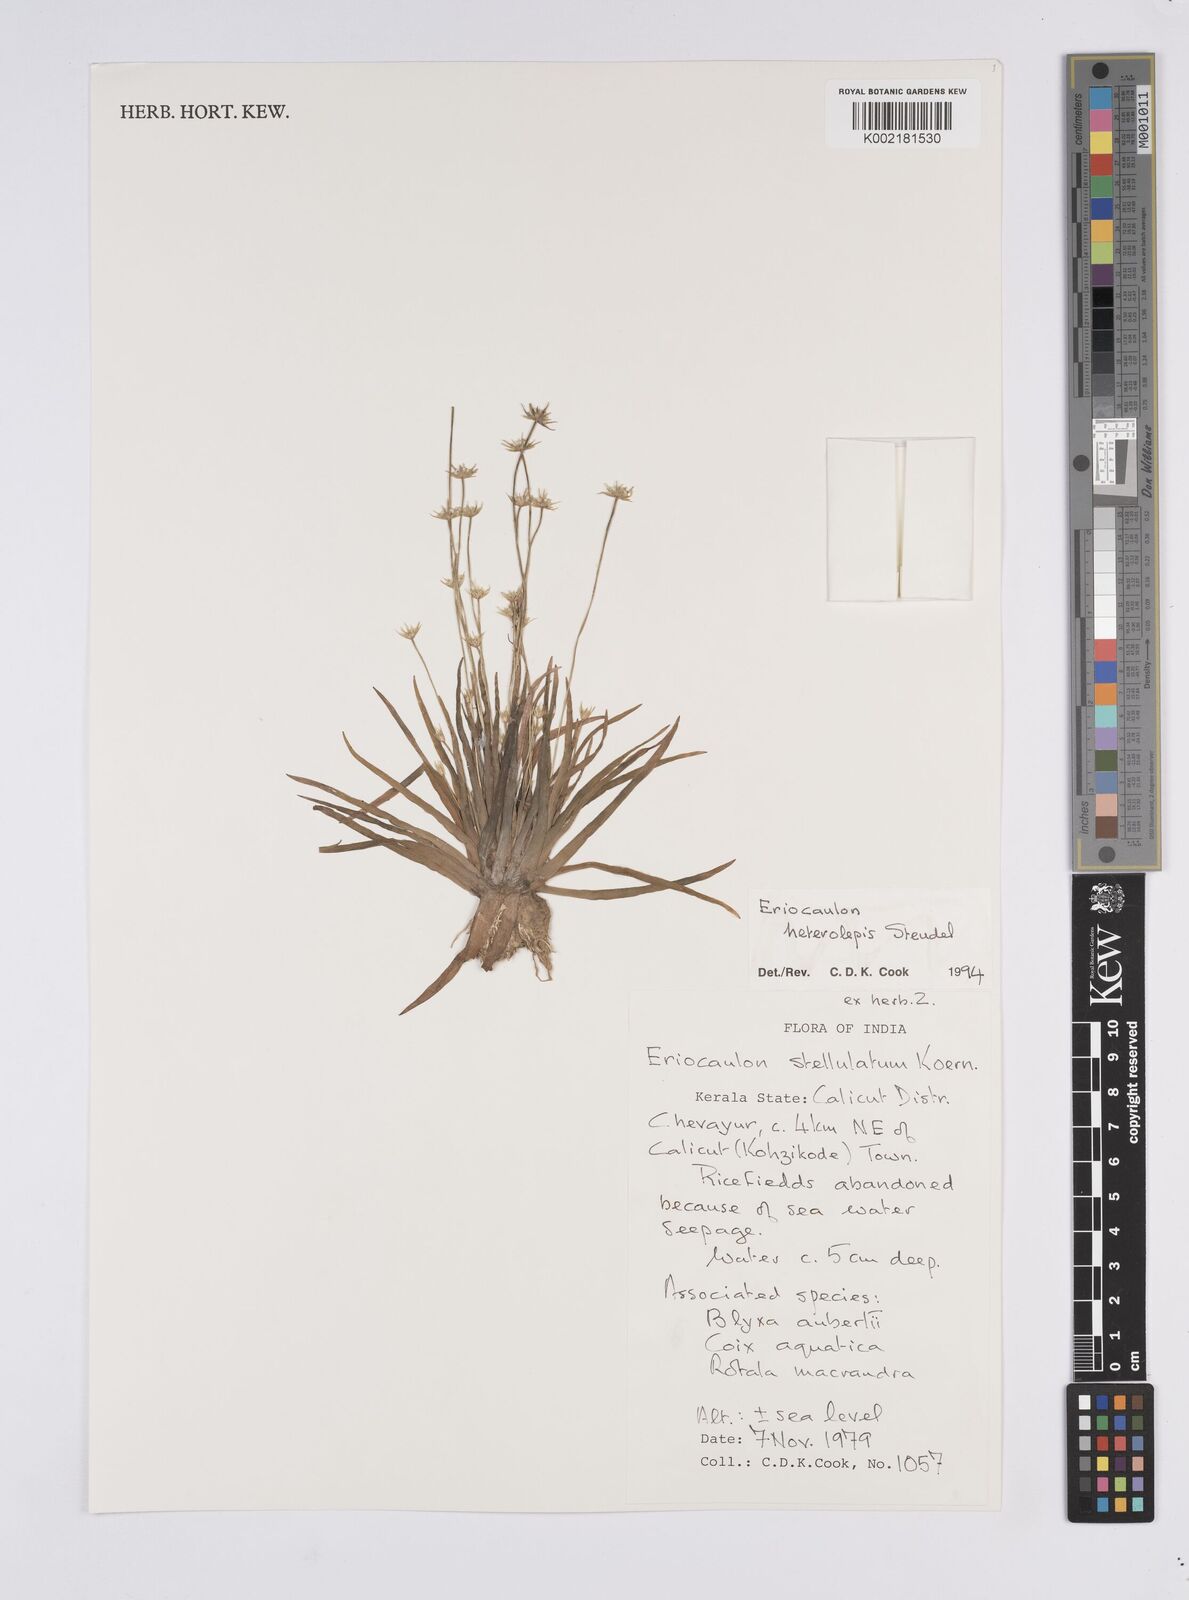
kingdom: Plantae
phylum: Tracheophyta
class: Liliopsida
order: Poales
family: Eriocaulaceae
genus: Eriocaulon
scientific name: Eriocaulon heterolepis
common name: Buttonhead pipewort
